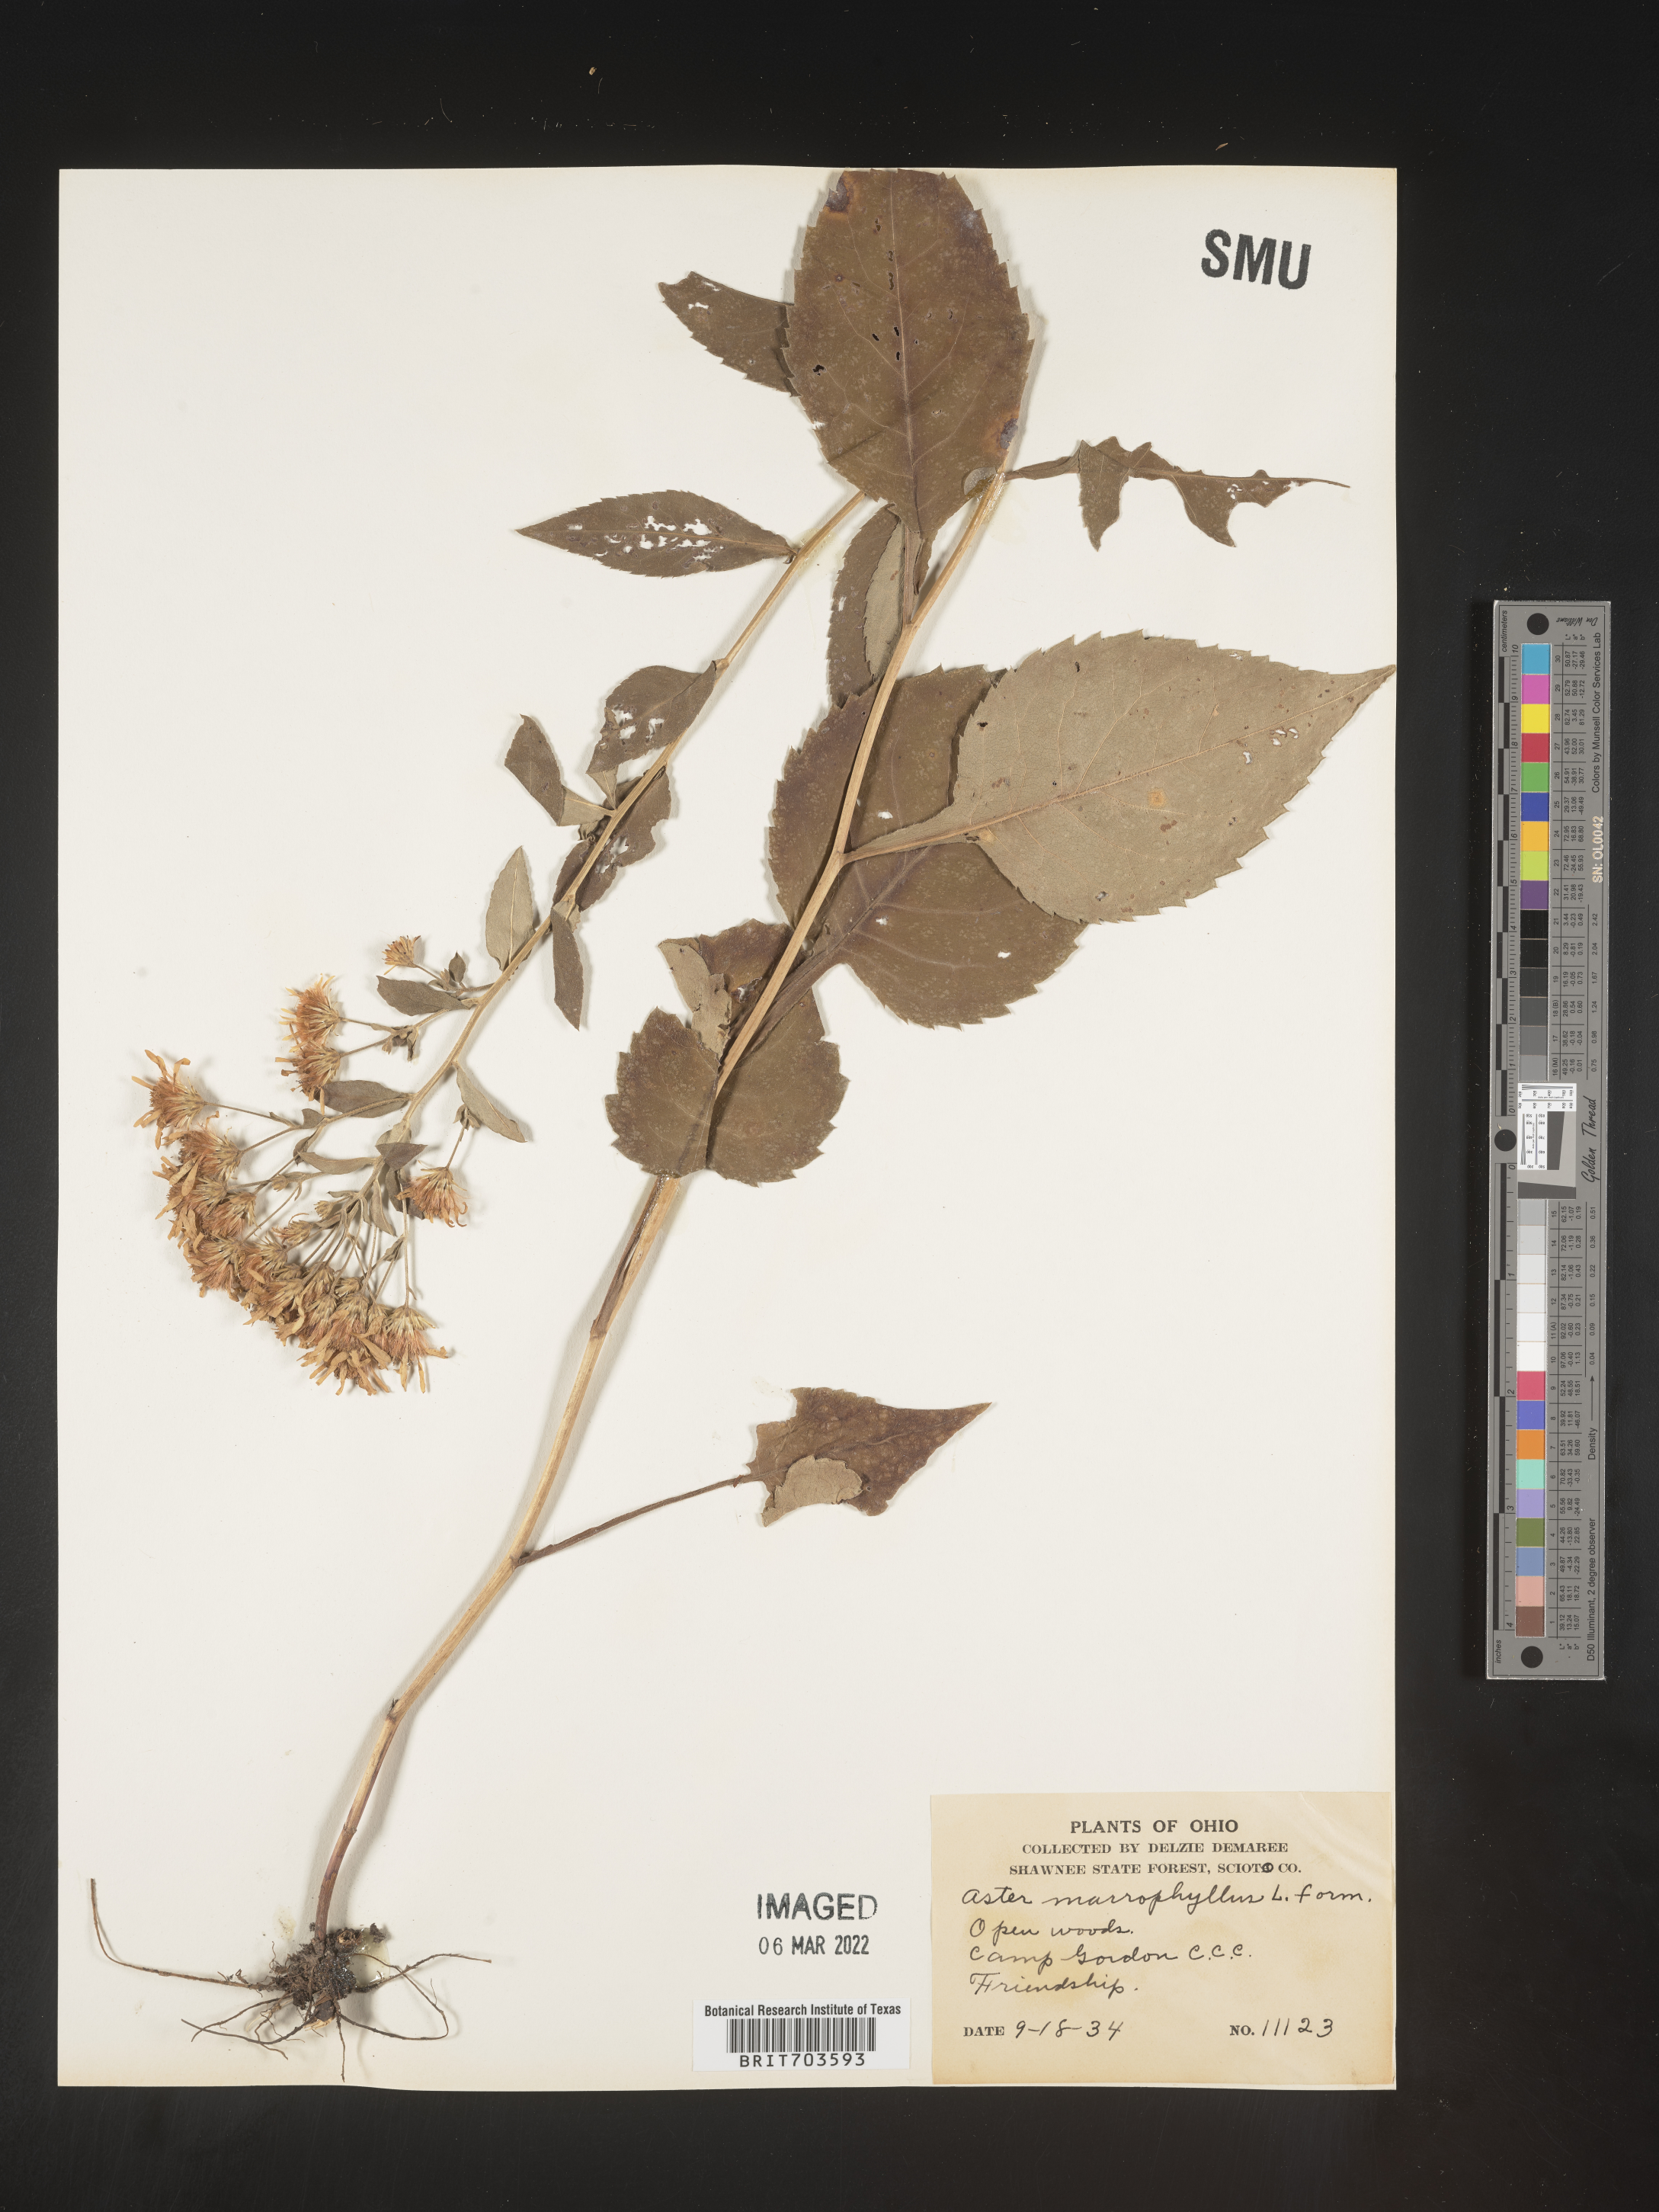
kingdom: Plantae
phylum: Tracheophyta
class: Magnoliopsida
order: Asterales
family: Asteraceae
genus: Eurybia
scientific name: Eurybia macrophylla
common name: Big-leaved aster
